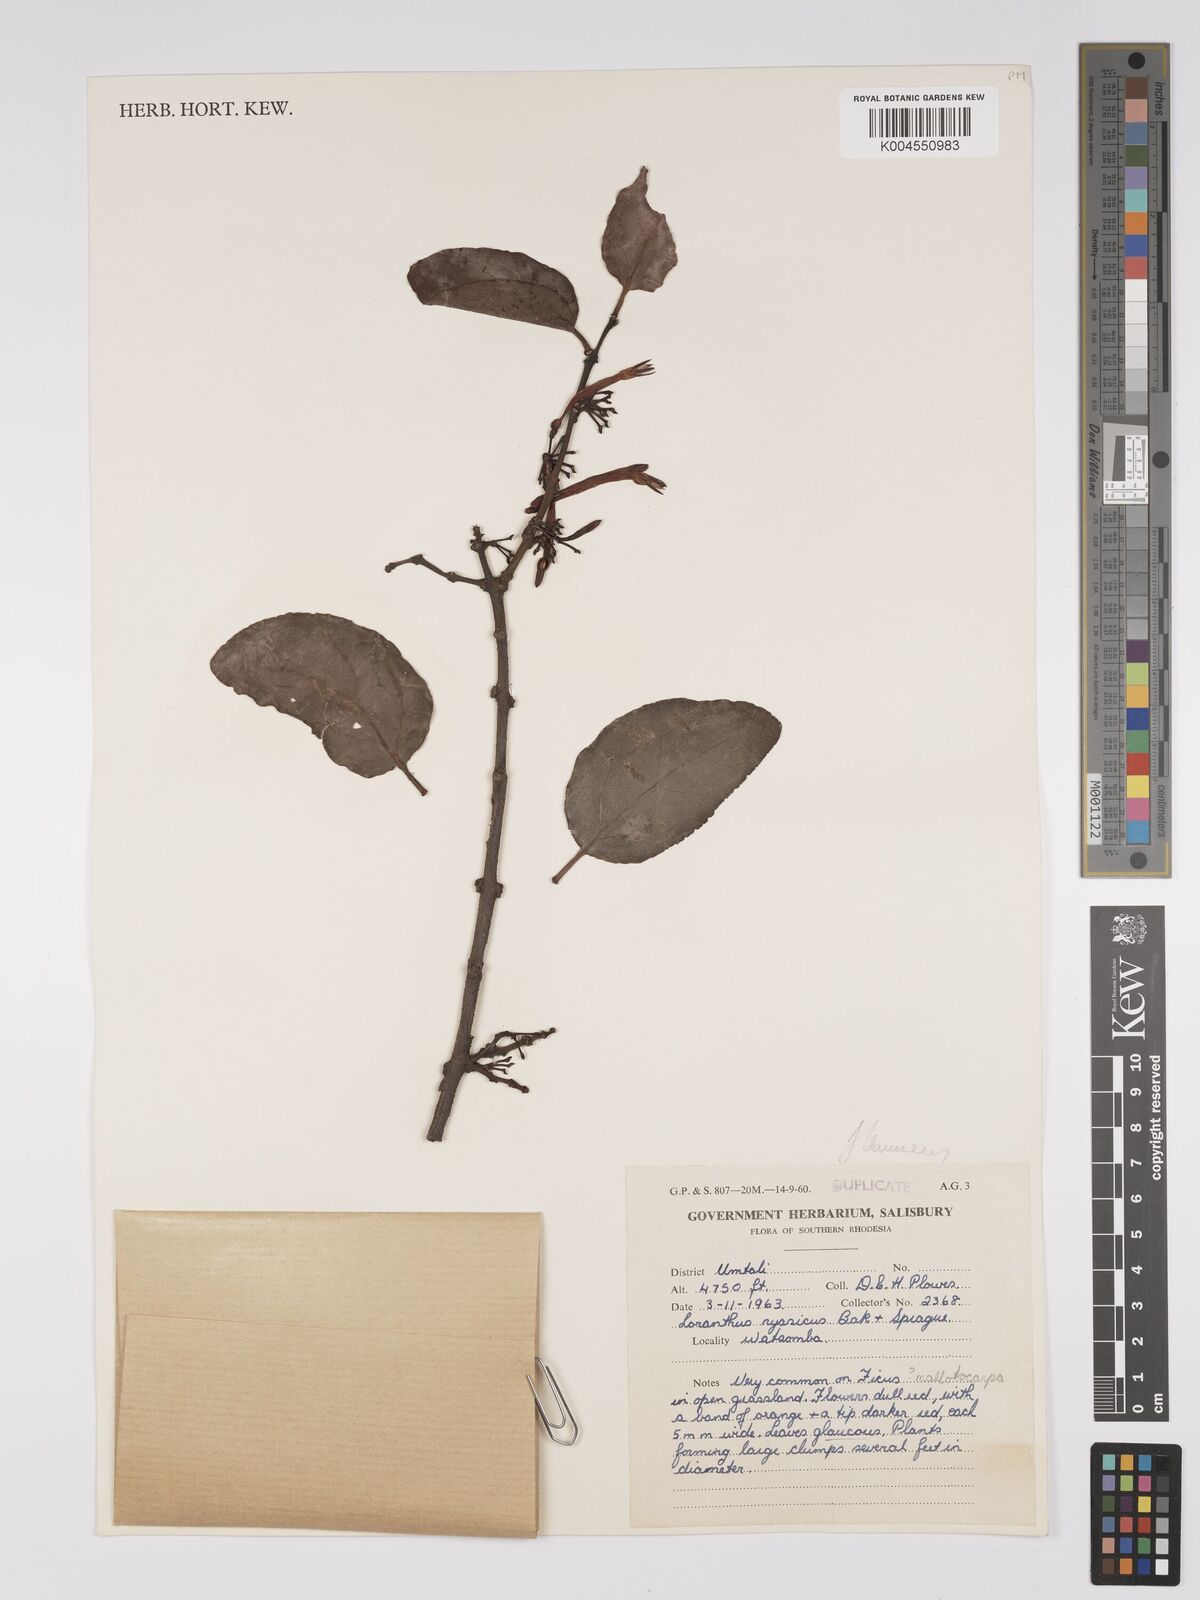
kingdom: Plantae
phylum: Tracheophyta
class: Magnoliopsida
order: Santalales
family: Loranthaceae
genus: Agelanthus
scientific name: Agelanthus flammeus
